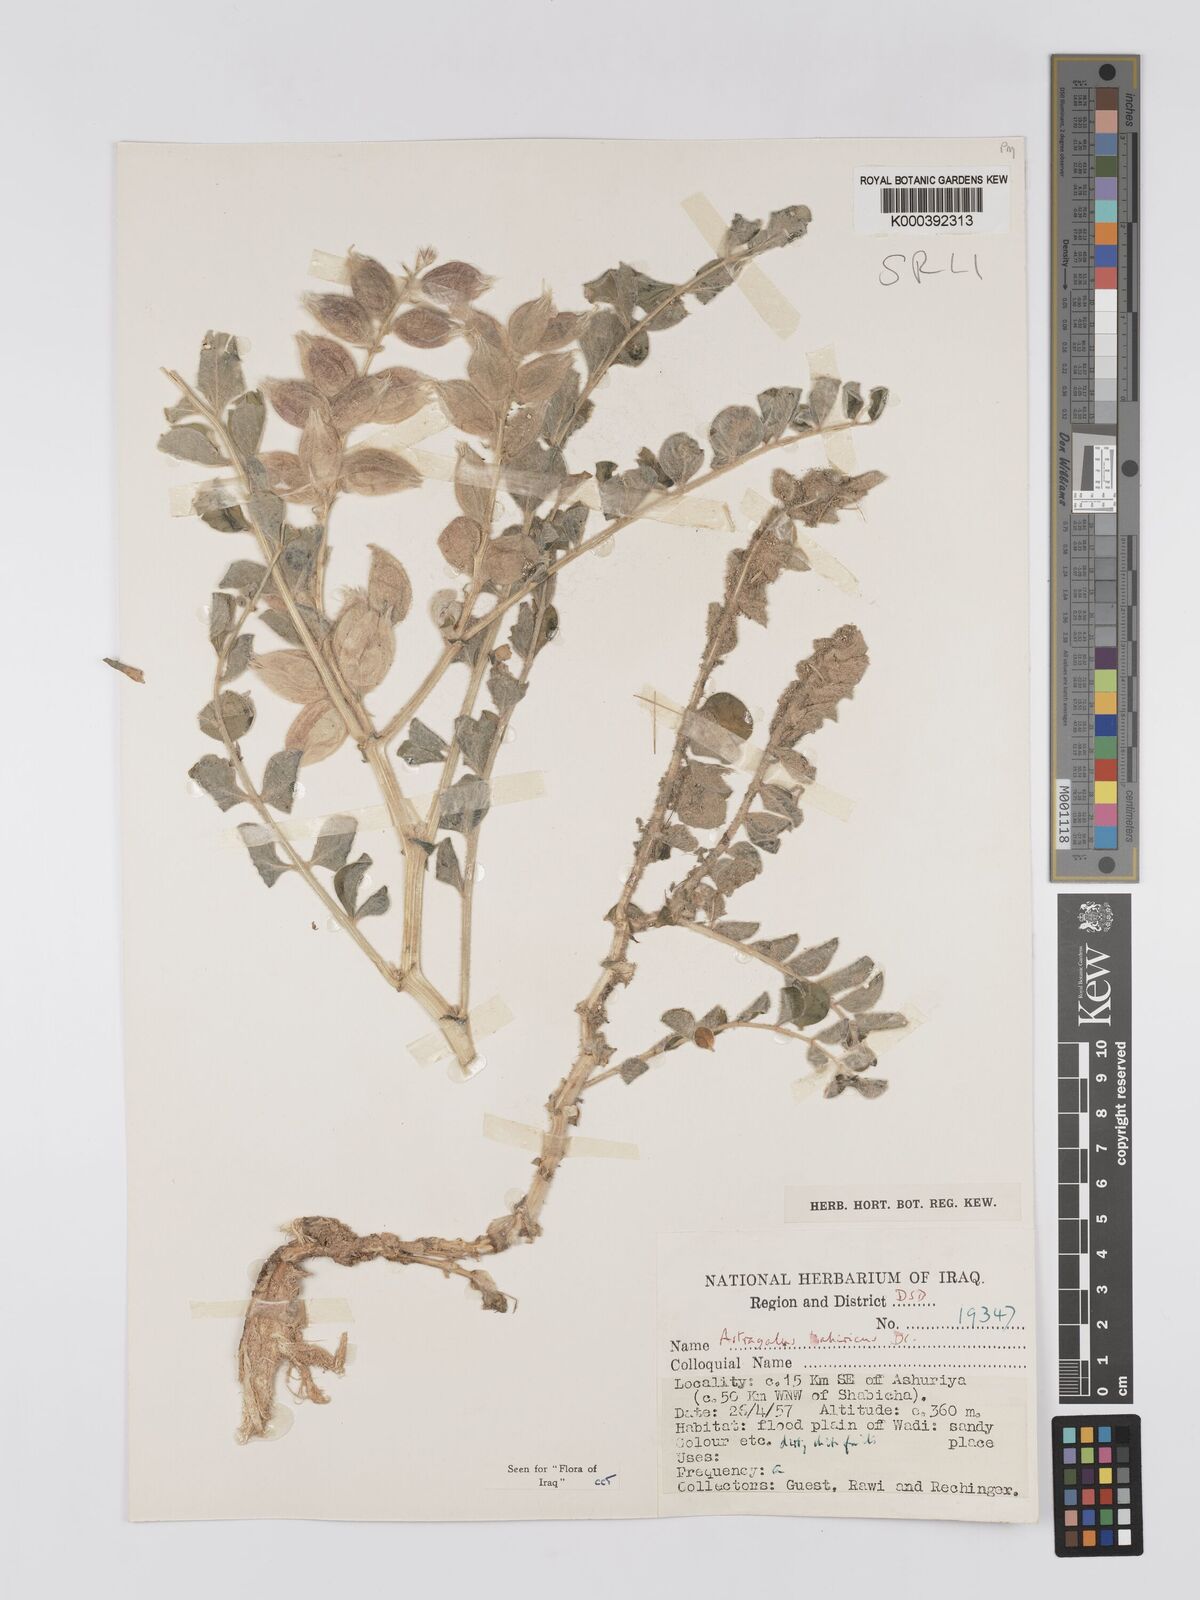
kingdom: Plantae
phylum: Tracheophyta
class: Magnoliopsida
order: Fabales
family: Fabaceae
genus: Astragalus
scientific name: Astragalus kahiricus
